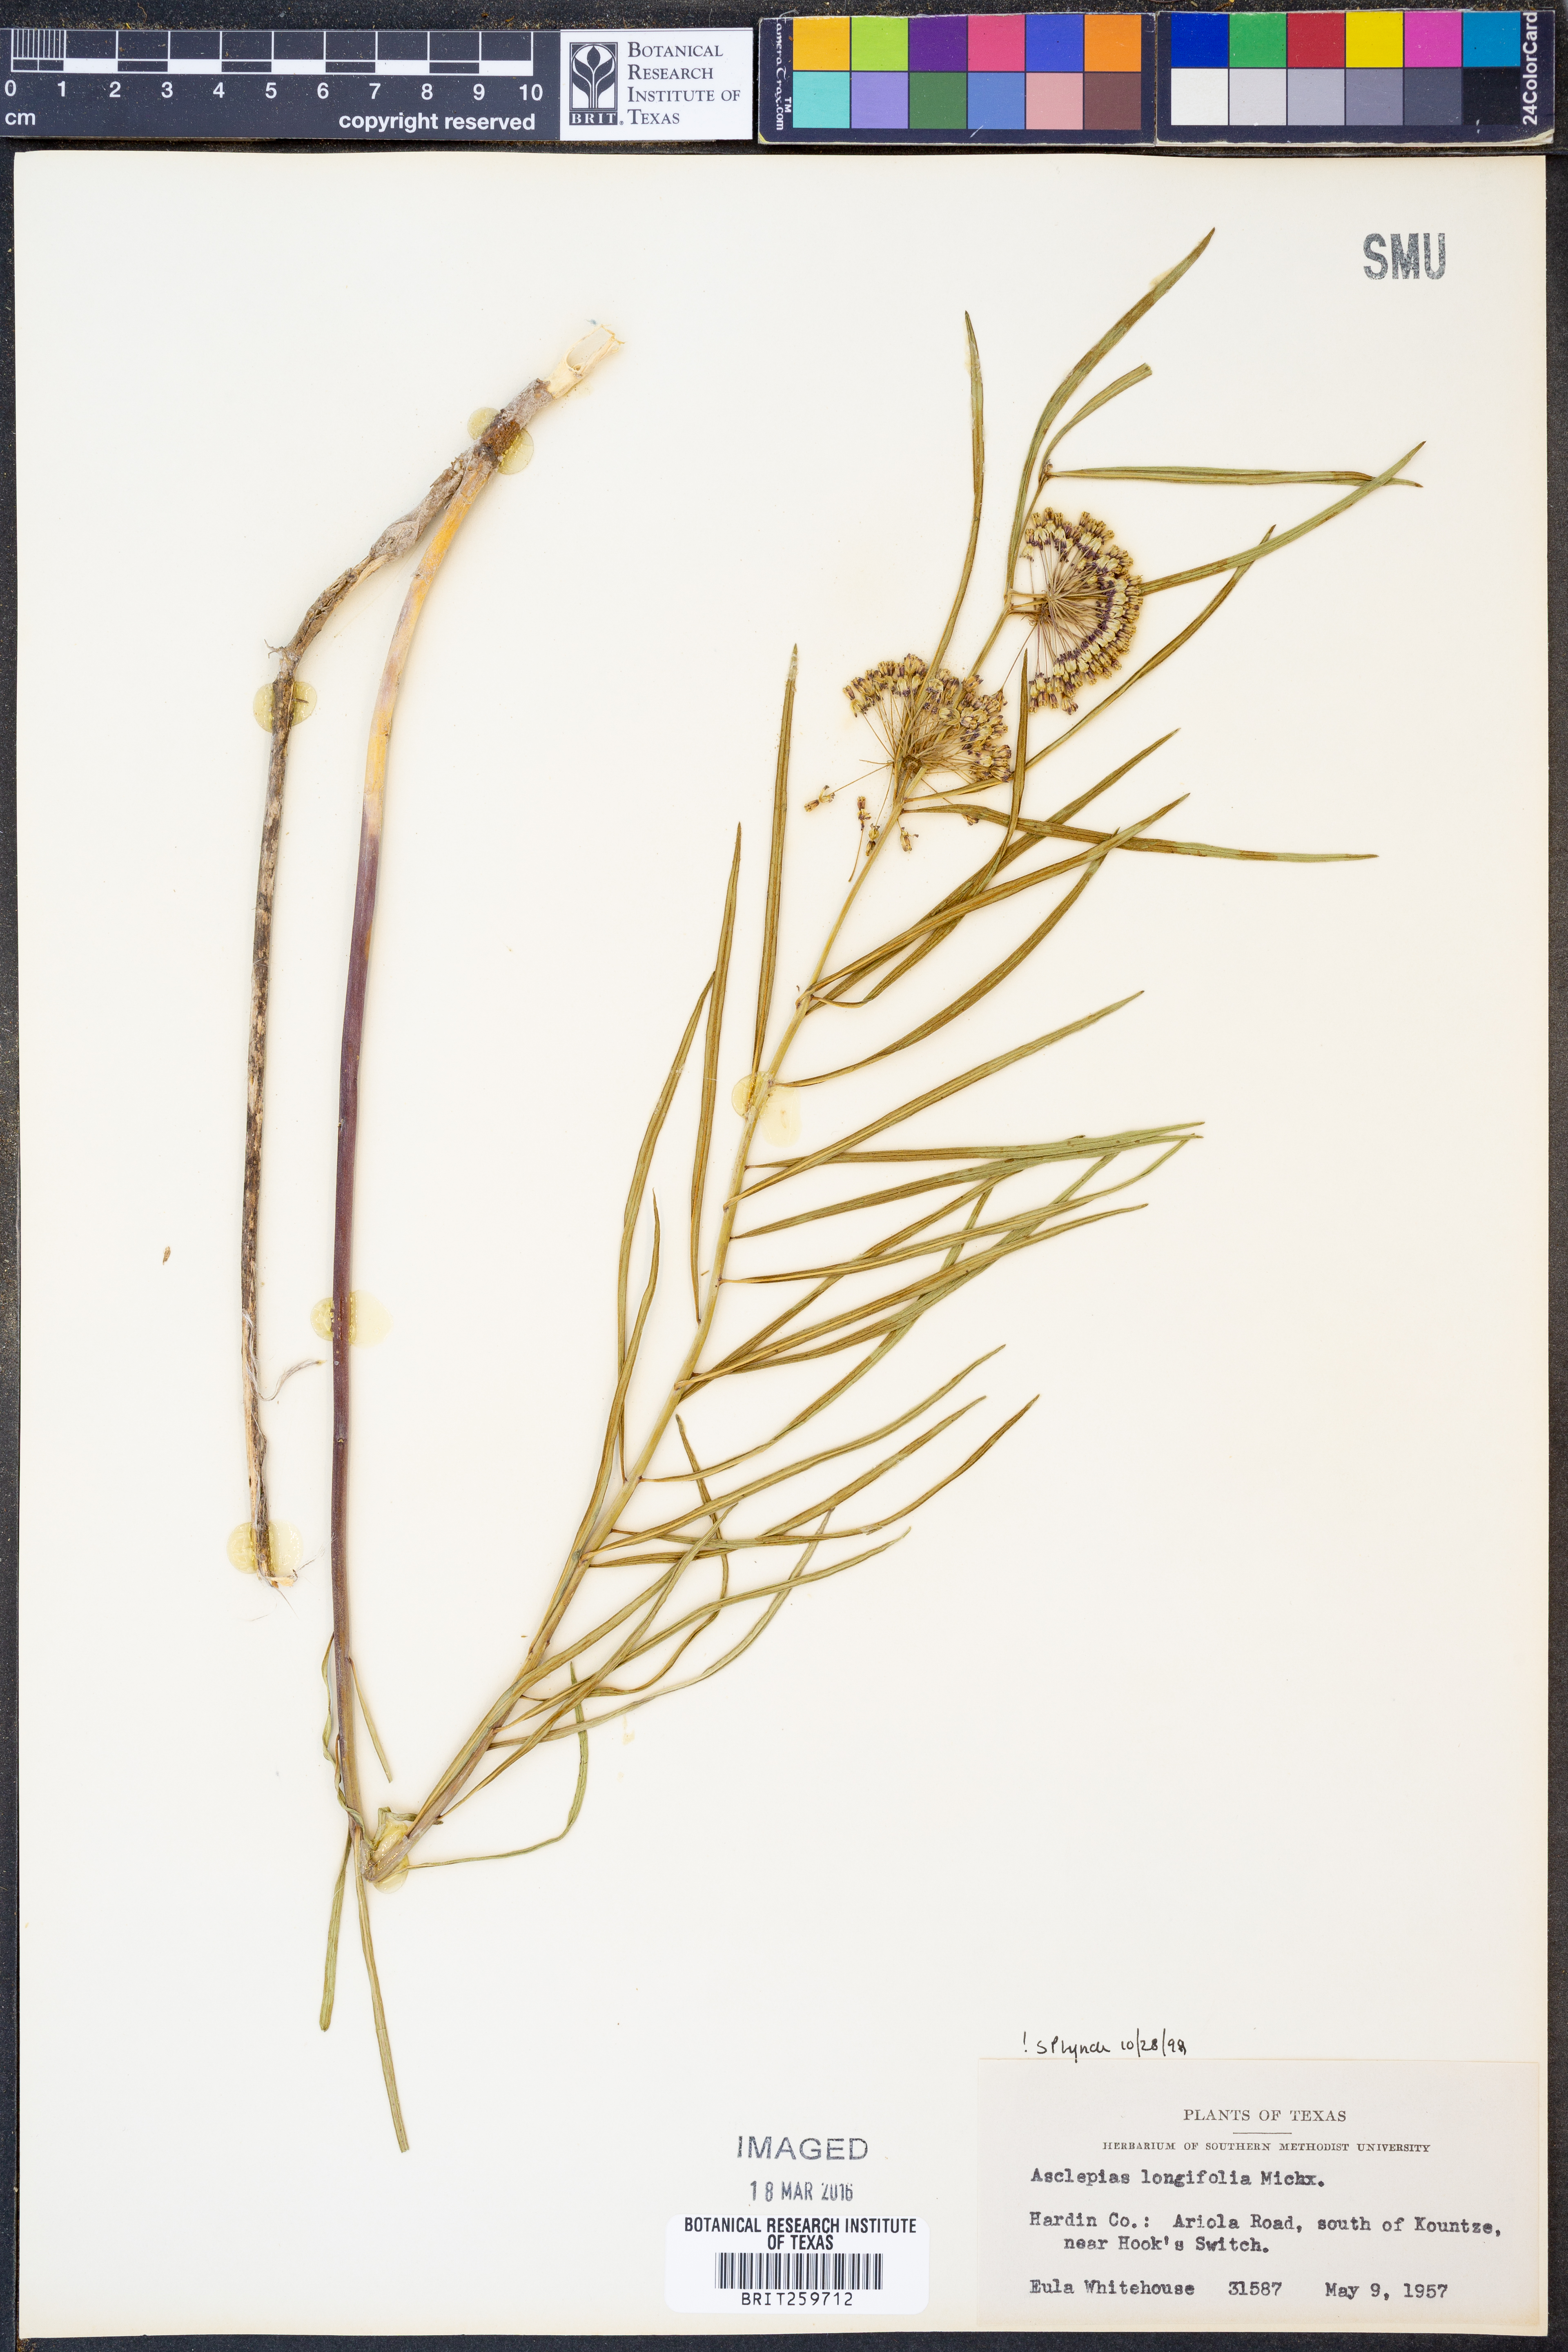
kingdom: Plantae
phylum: Tracheophyta
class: Magnoliopsida
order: Gentianales
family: Apocynaceae
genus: Asclepias
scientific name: Asclepias longifolia
